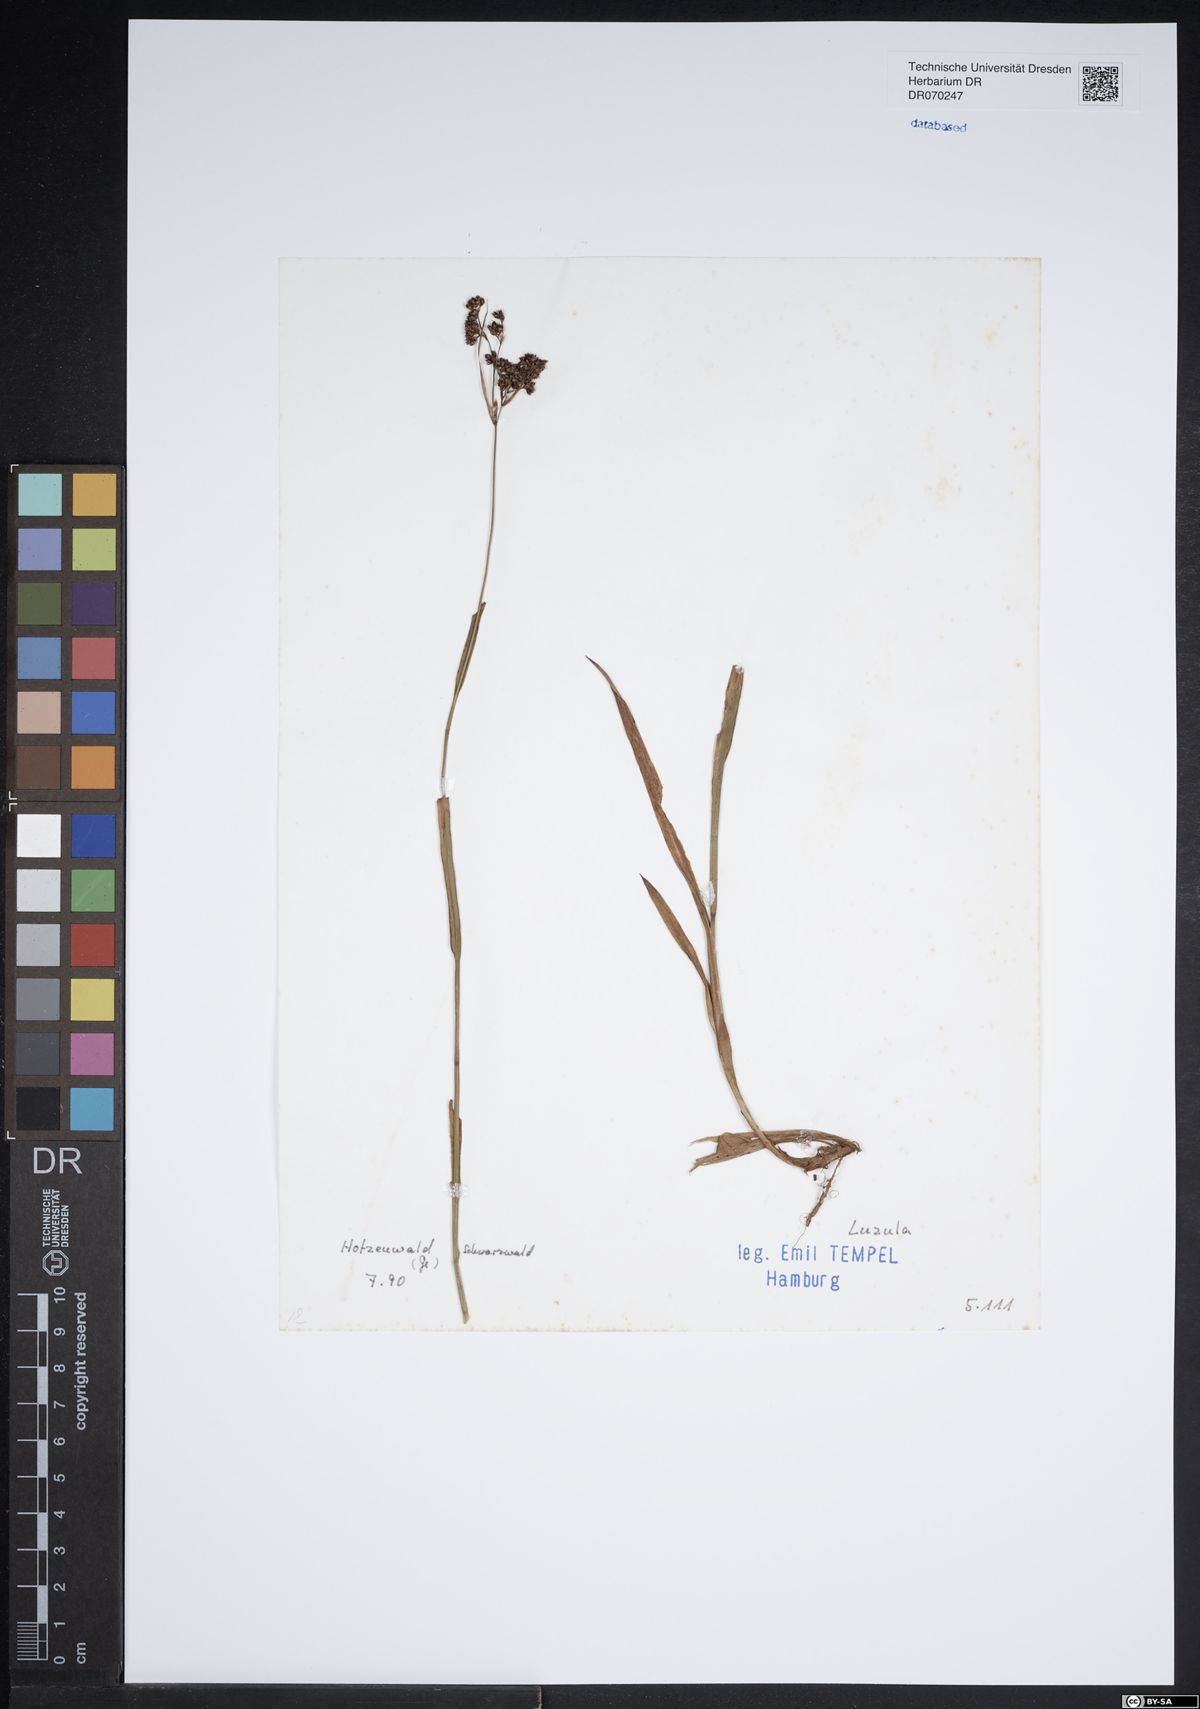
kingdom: Plantae
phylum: Tracheophyta
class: Liliopsida
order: Poales
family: Juncaceae
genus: Luzula
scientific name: Luzula
